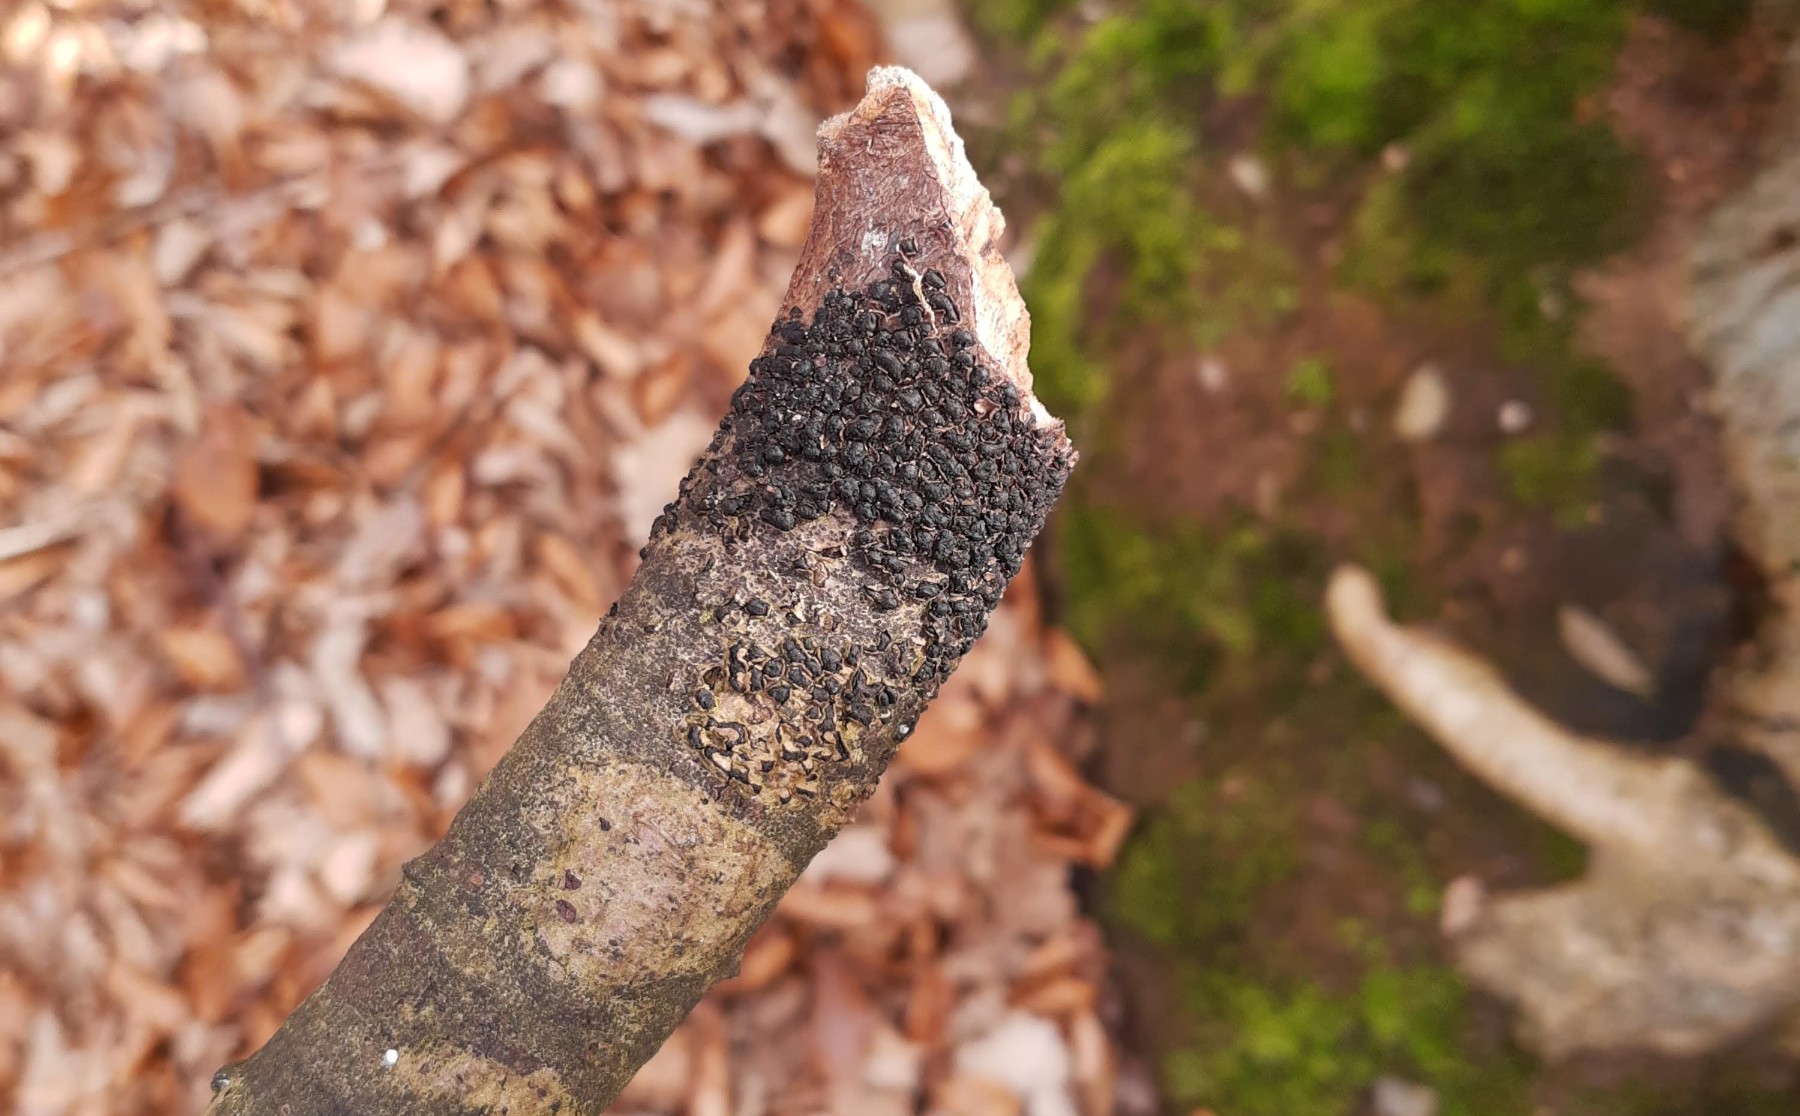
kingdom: Fungi
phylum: Ascomycota
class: Sordariomycetes
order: Xylariales
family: Melogrammataceae
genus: Melogramma
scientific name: Melogramma spiniferum
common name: bøgefod-kulhals
